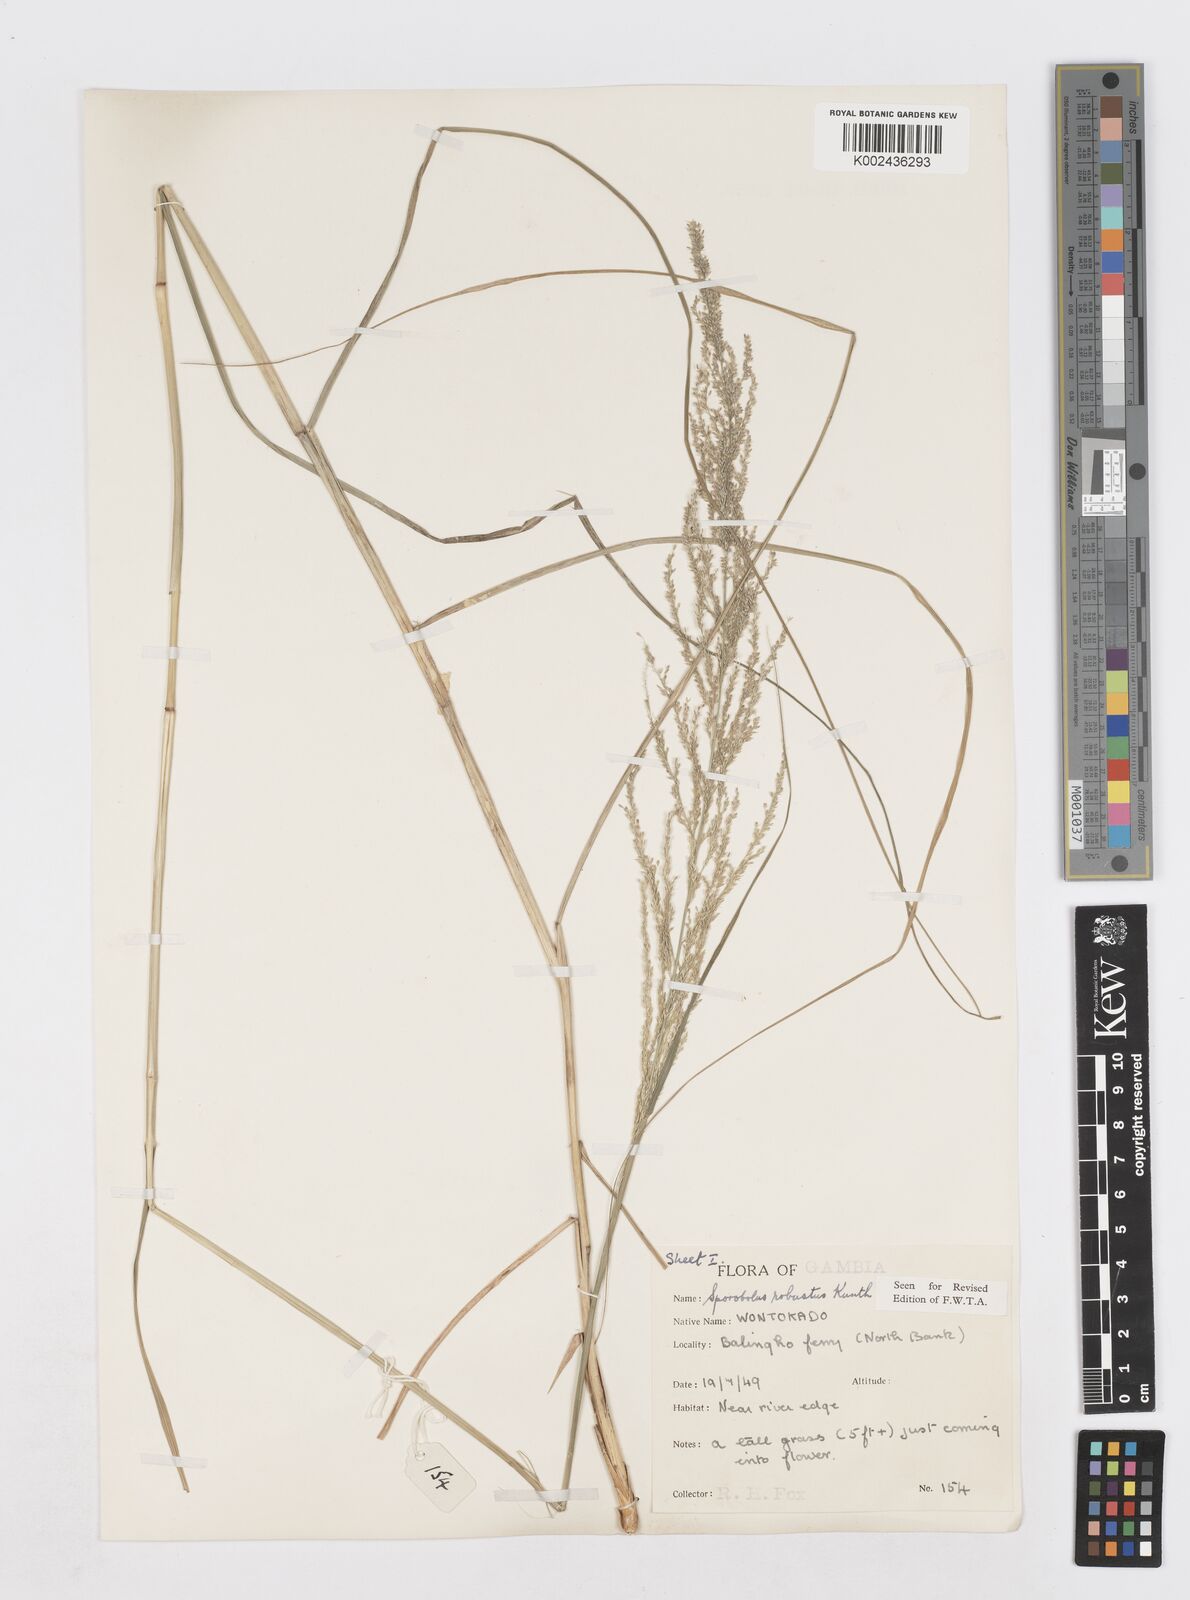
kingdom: Plantae
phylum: Tracheophyta
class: Liliopsida
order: Poales
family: Poaceae
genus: Sporobolus
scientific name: Sporobolus robustus
